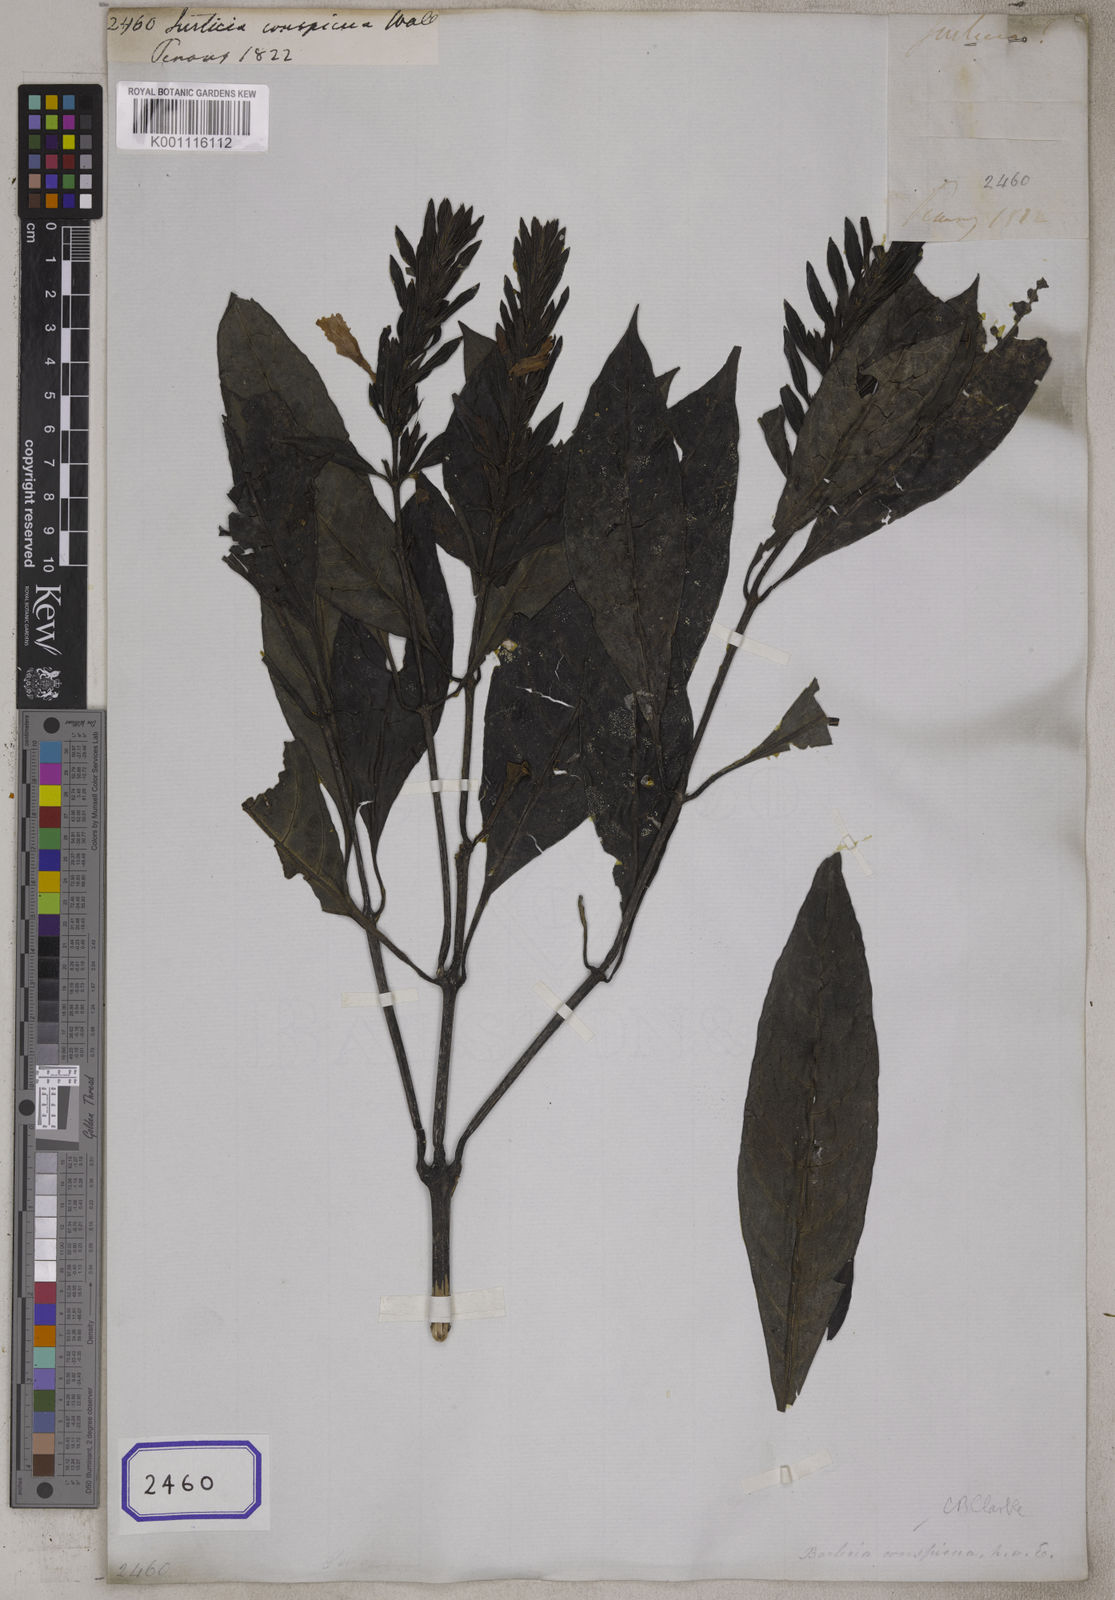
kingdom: Plantae
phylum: Tracheophyta
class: Magnoliopsida
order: Lamiales
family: Acanthaceae
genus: Barleria
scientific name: Barleria conspicua
